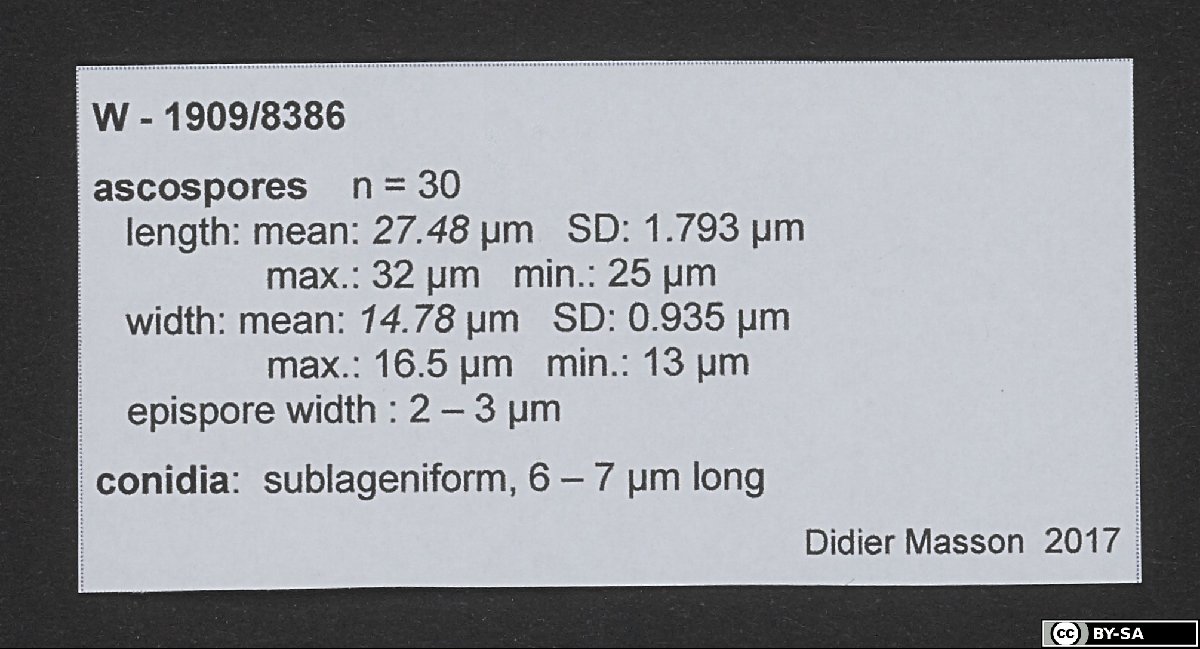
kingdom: Fungi
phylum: Ascomycota
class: Lecanoromycetes
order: Lecanorales
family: Parmeliaceae
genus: Parmotrema
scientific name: Parmotrema amaniense
